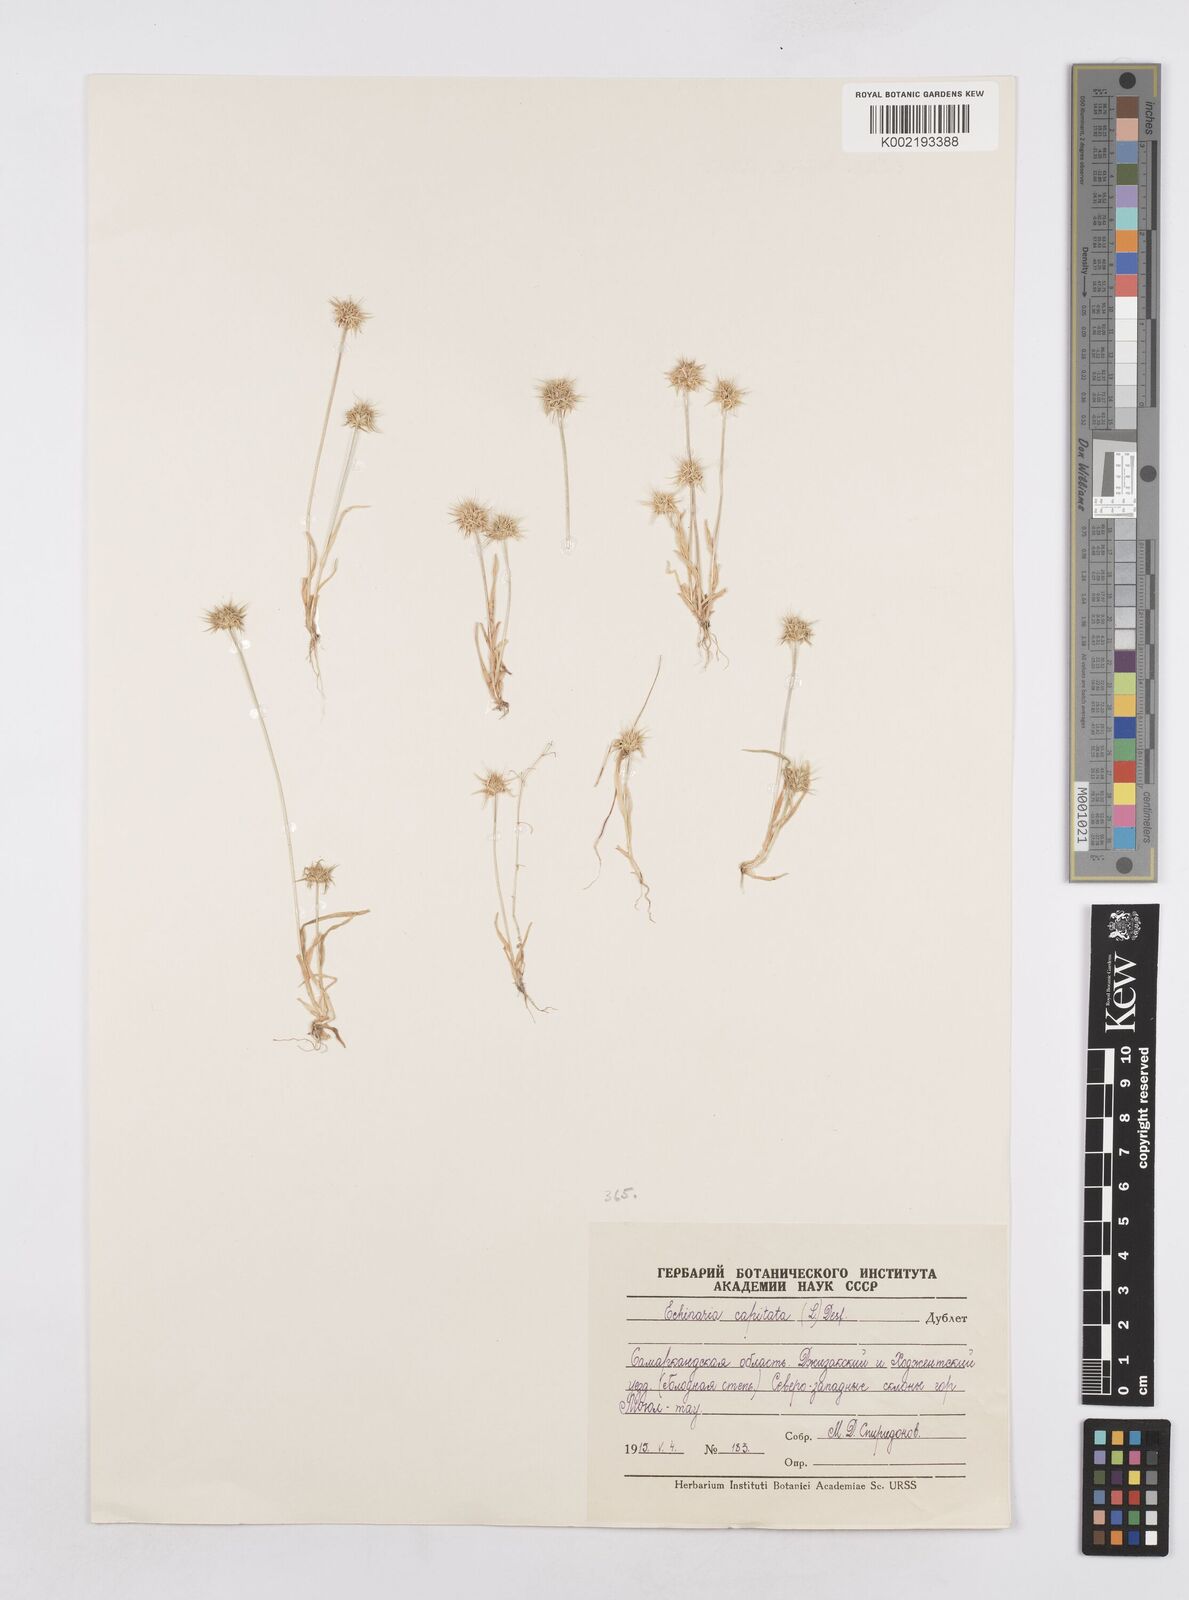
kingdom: Plantae
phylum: Tracheophyta
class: Liliopsida
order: Poales
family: Poaceae
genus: Echinaria
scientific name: Echinaria capitata
